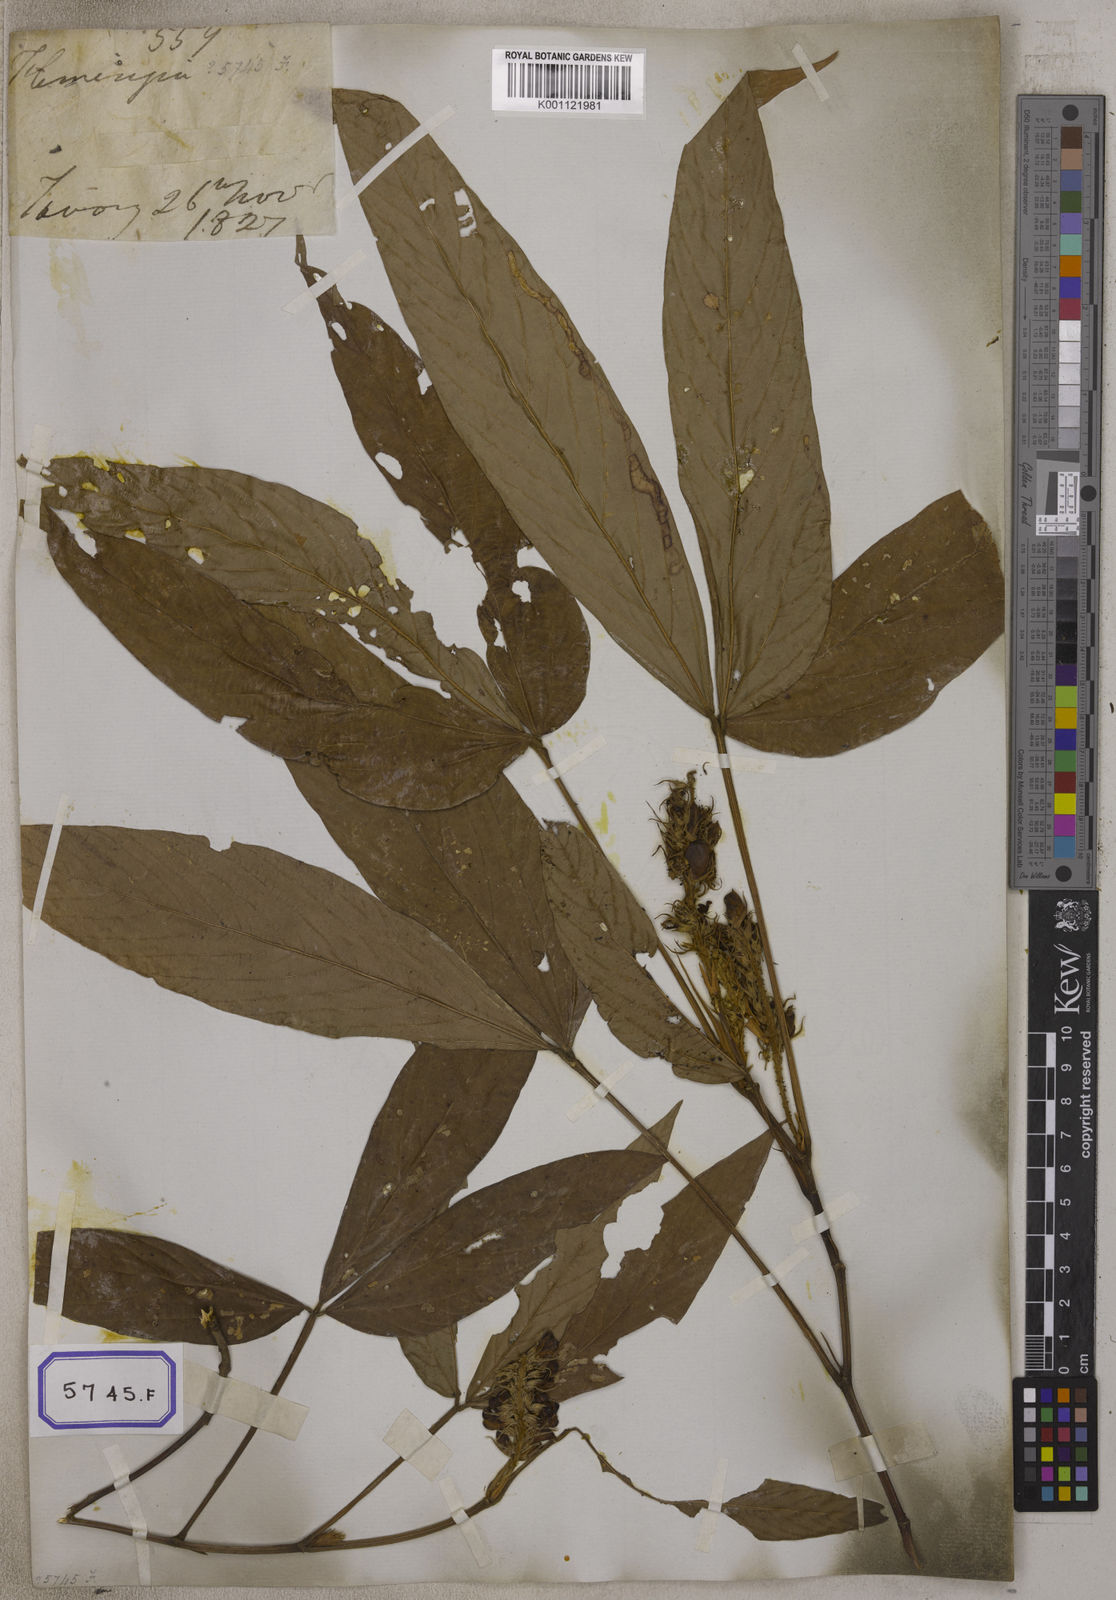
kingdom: Plantae
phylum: Tracheophyta
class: Magnoliopsida
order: Fabales
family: Fabaceae
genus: Flemingia
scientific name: Flemingia
